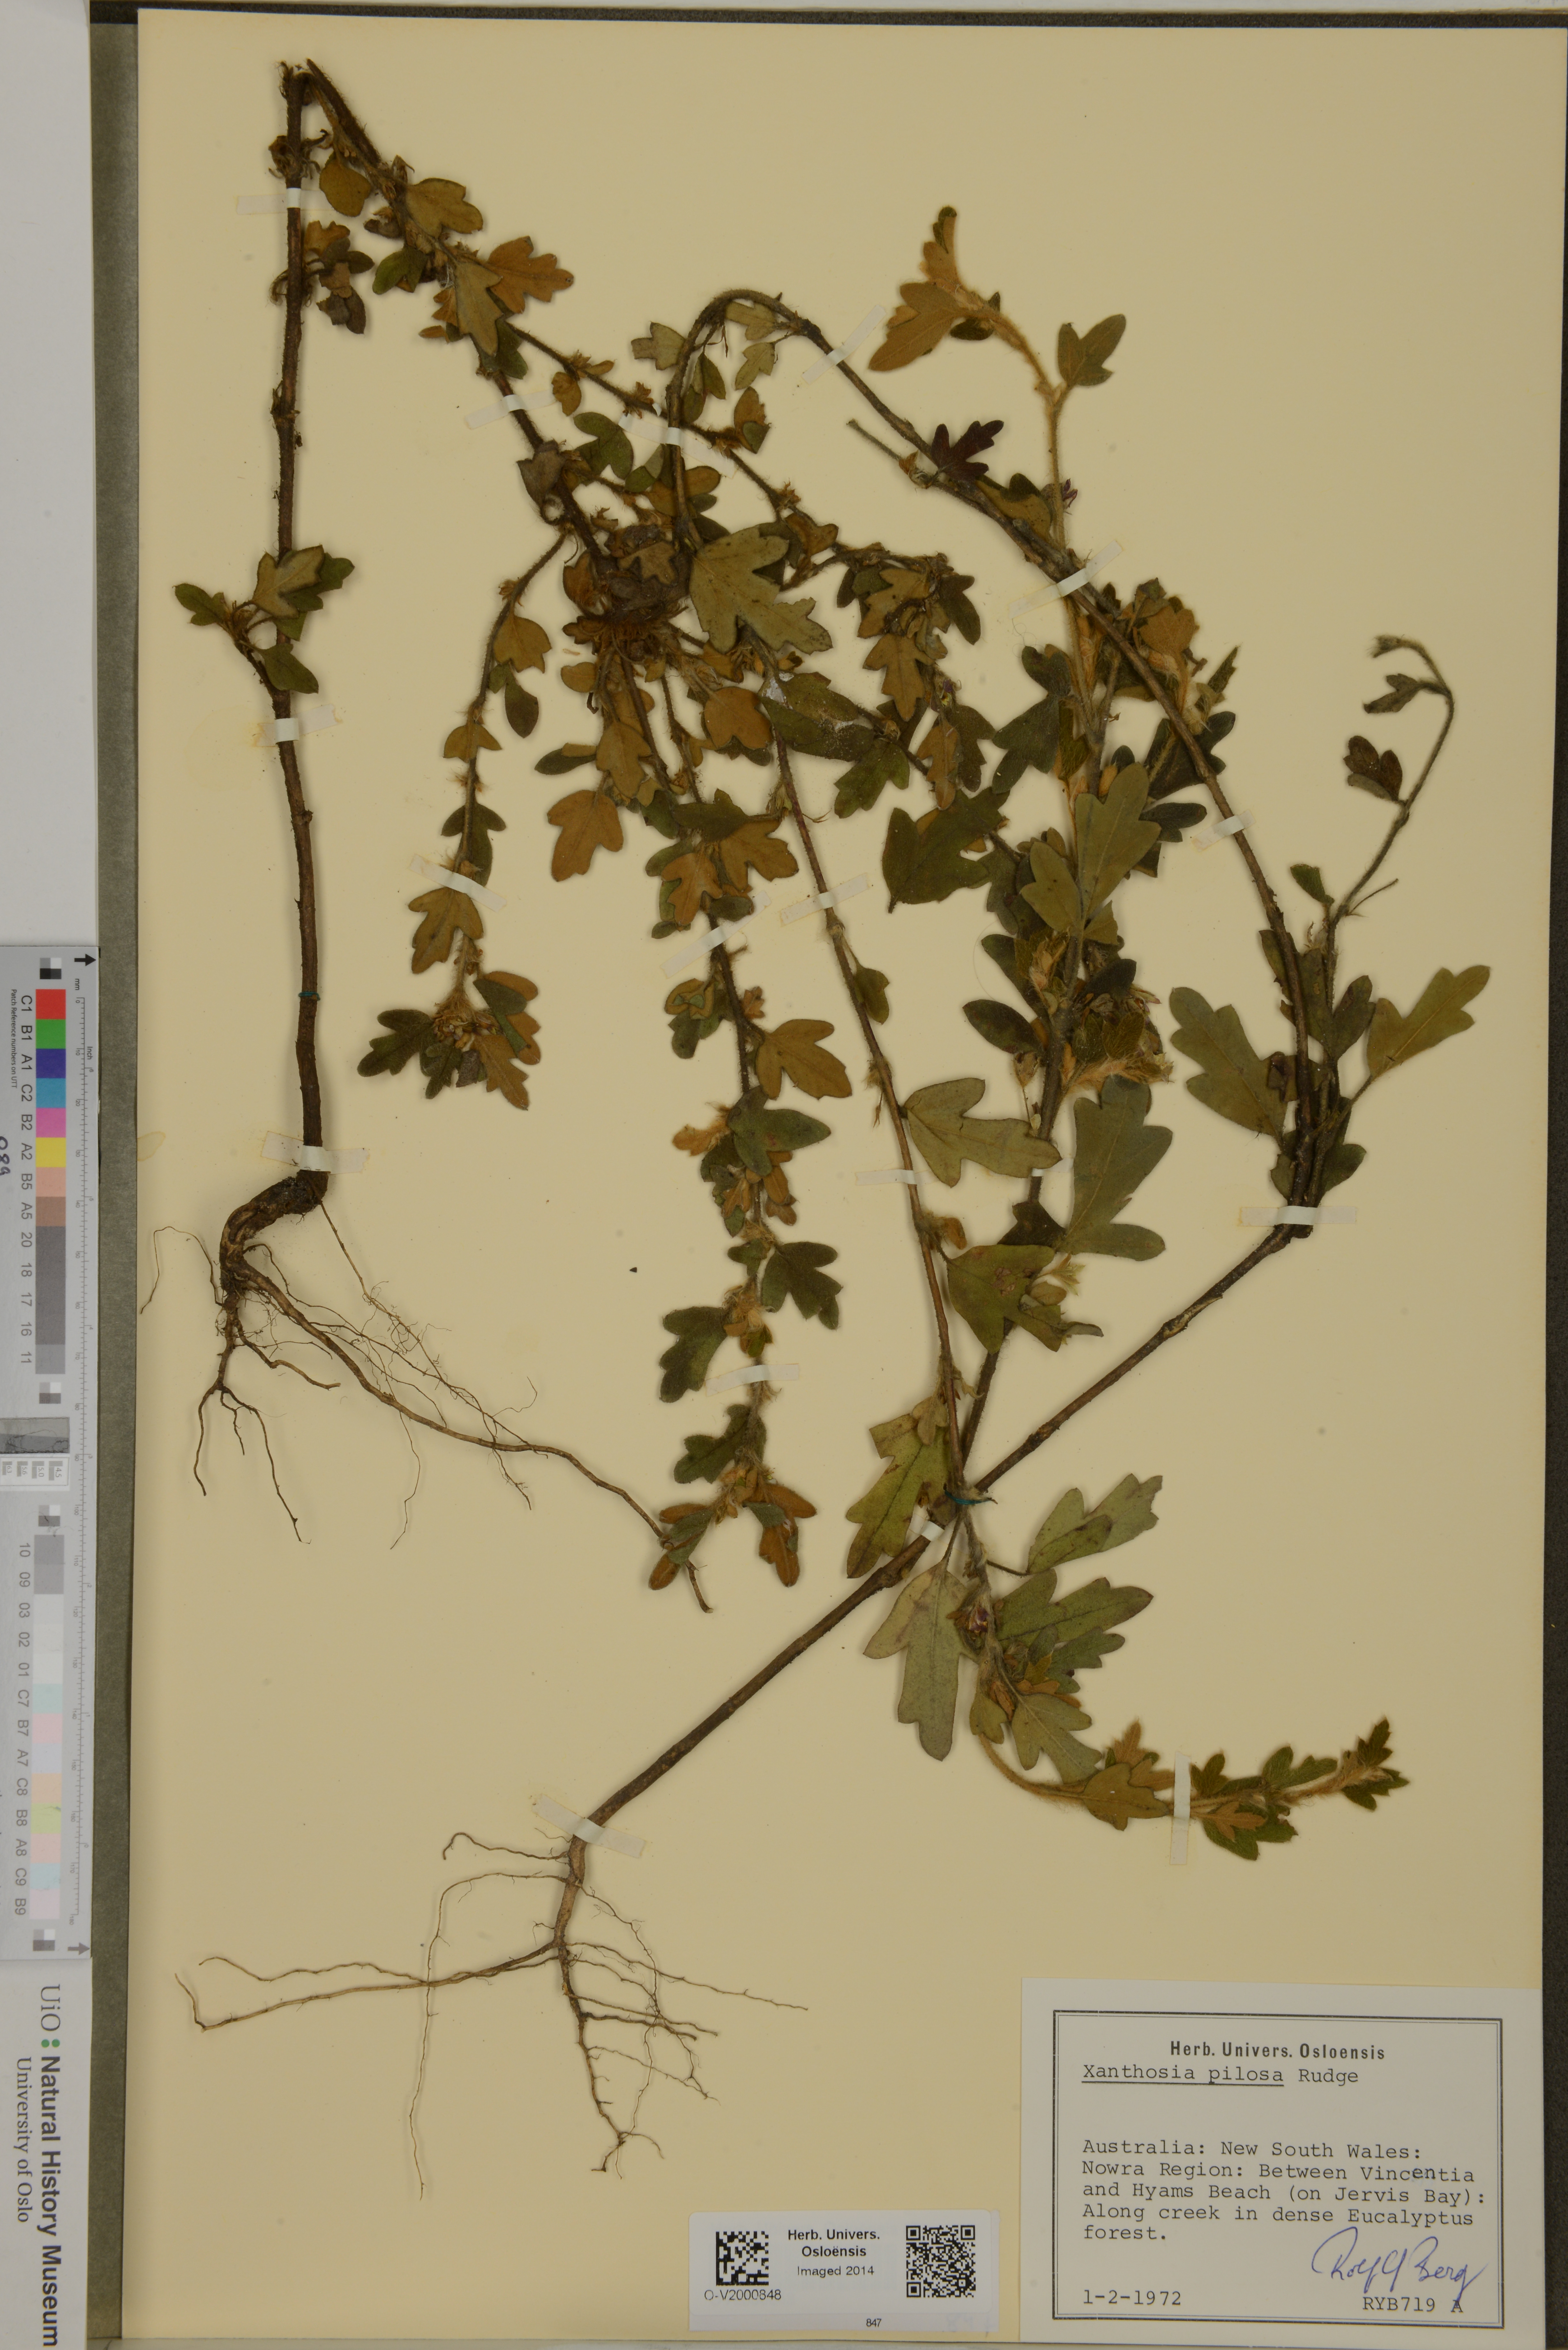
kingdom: Plantae
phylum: Tracheophyta
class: Magnoliopsida
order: Apiales
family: Apiaceae
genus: Xanthosia
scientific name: Xanthosia pilosa
